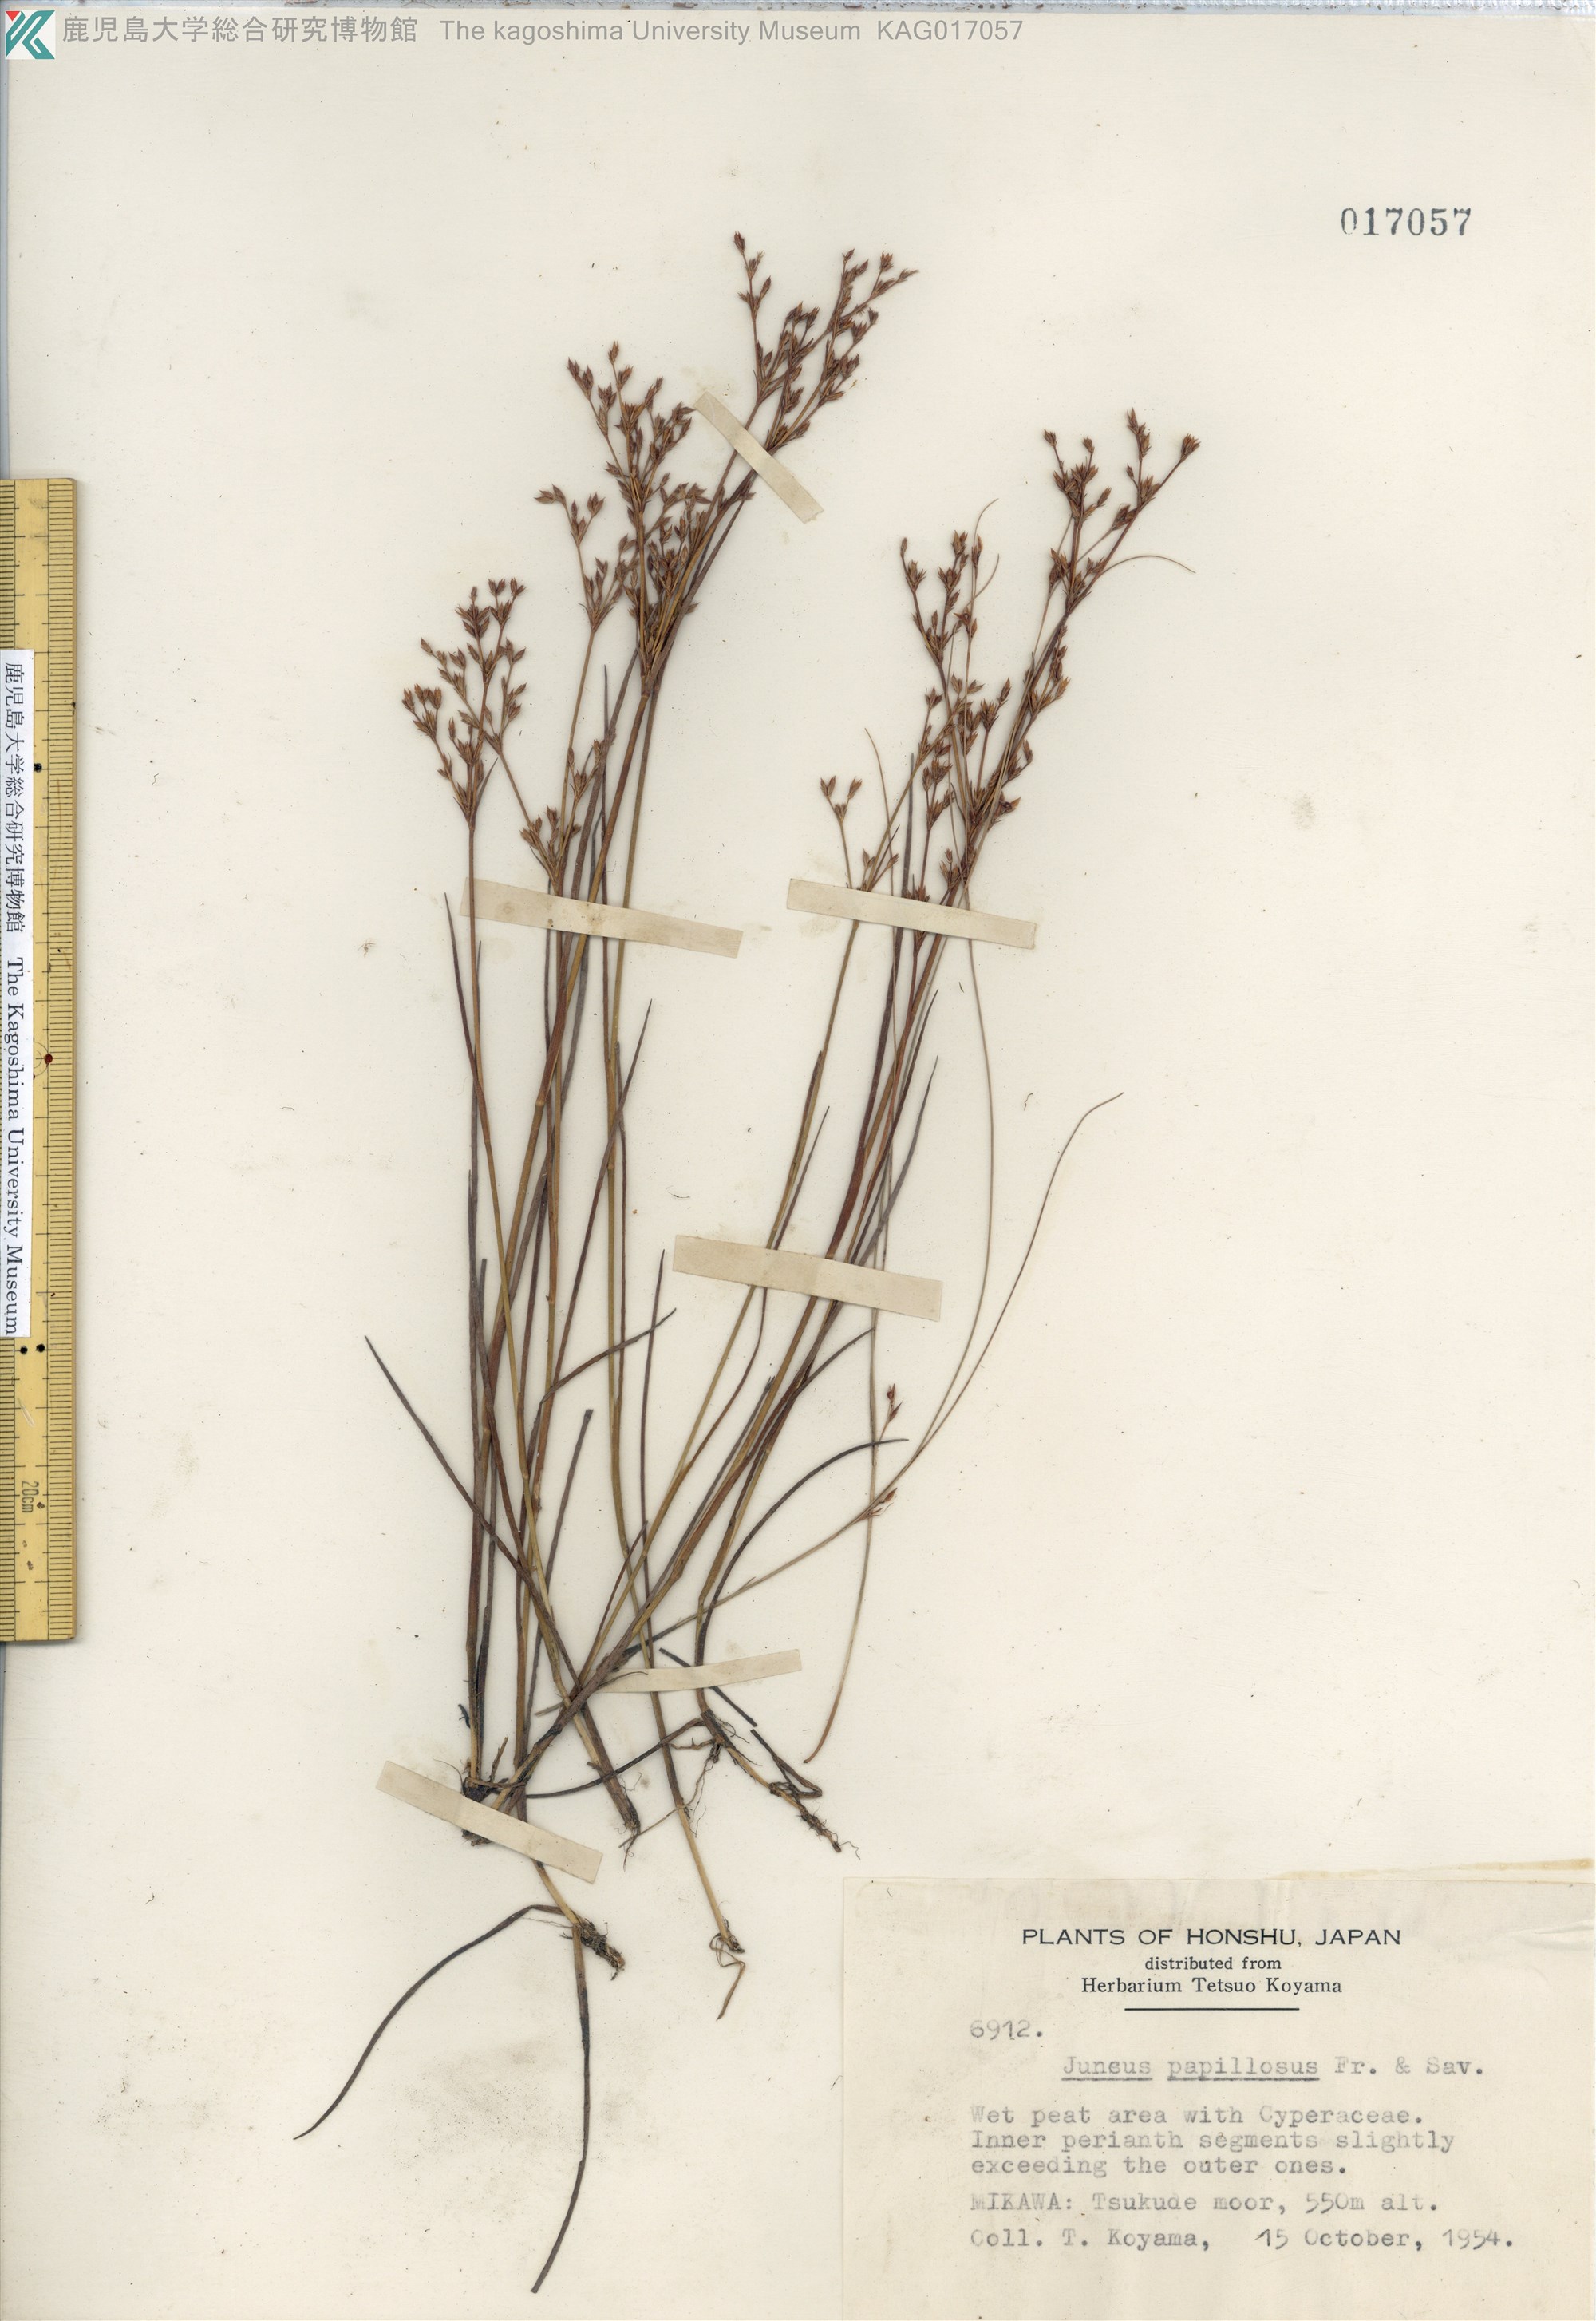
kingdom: Plantae
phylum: Tracheophyta
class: Liliopsida
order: Poales
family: Juncaceae
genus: Juncus
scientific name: Juncus papillosus
